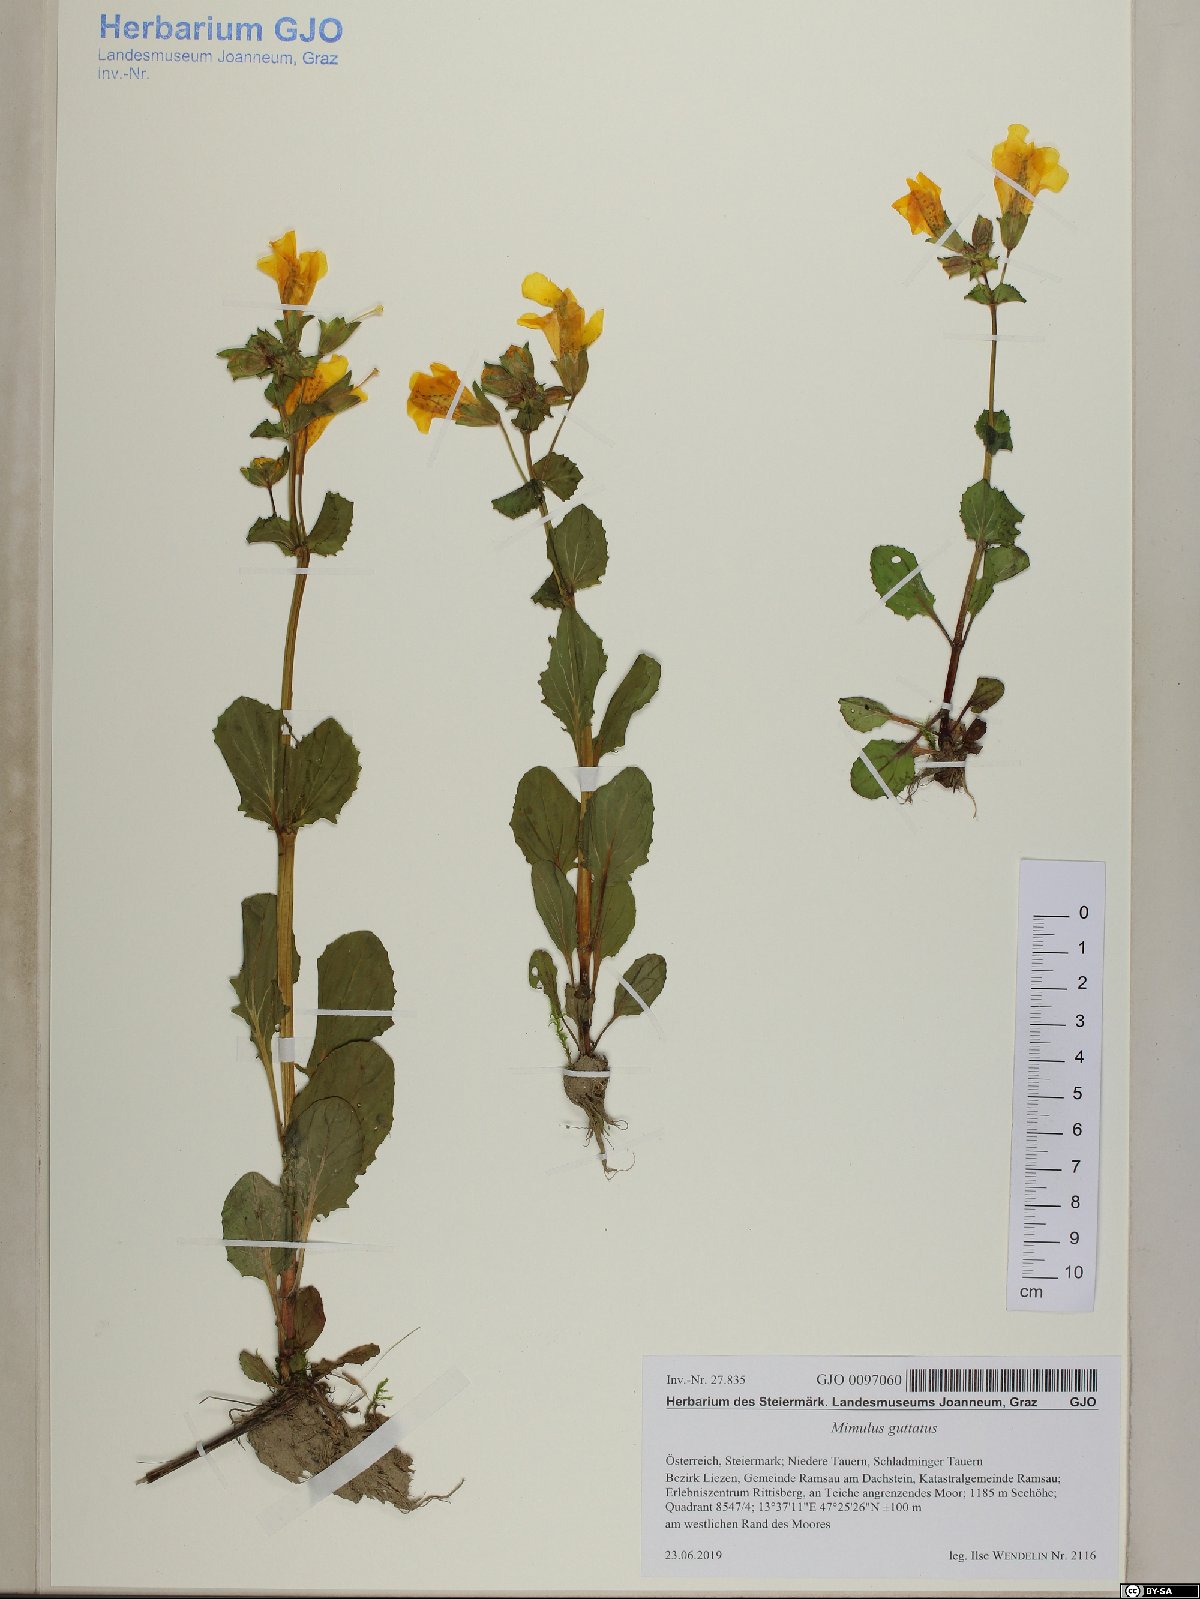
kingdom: Plantae
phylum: Tracheophyta
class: Magnoliopsida
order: Lamiales
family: Phrymaceae
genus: Erythranthe
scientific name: Erythranthe guttata
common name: Monkeyflower
